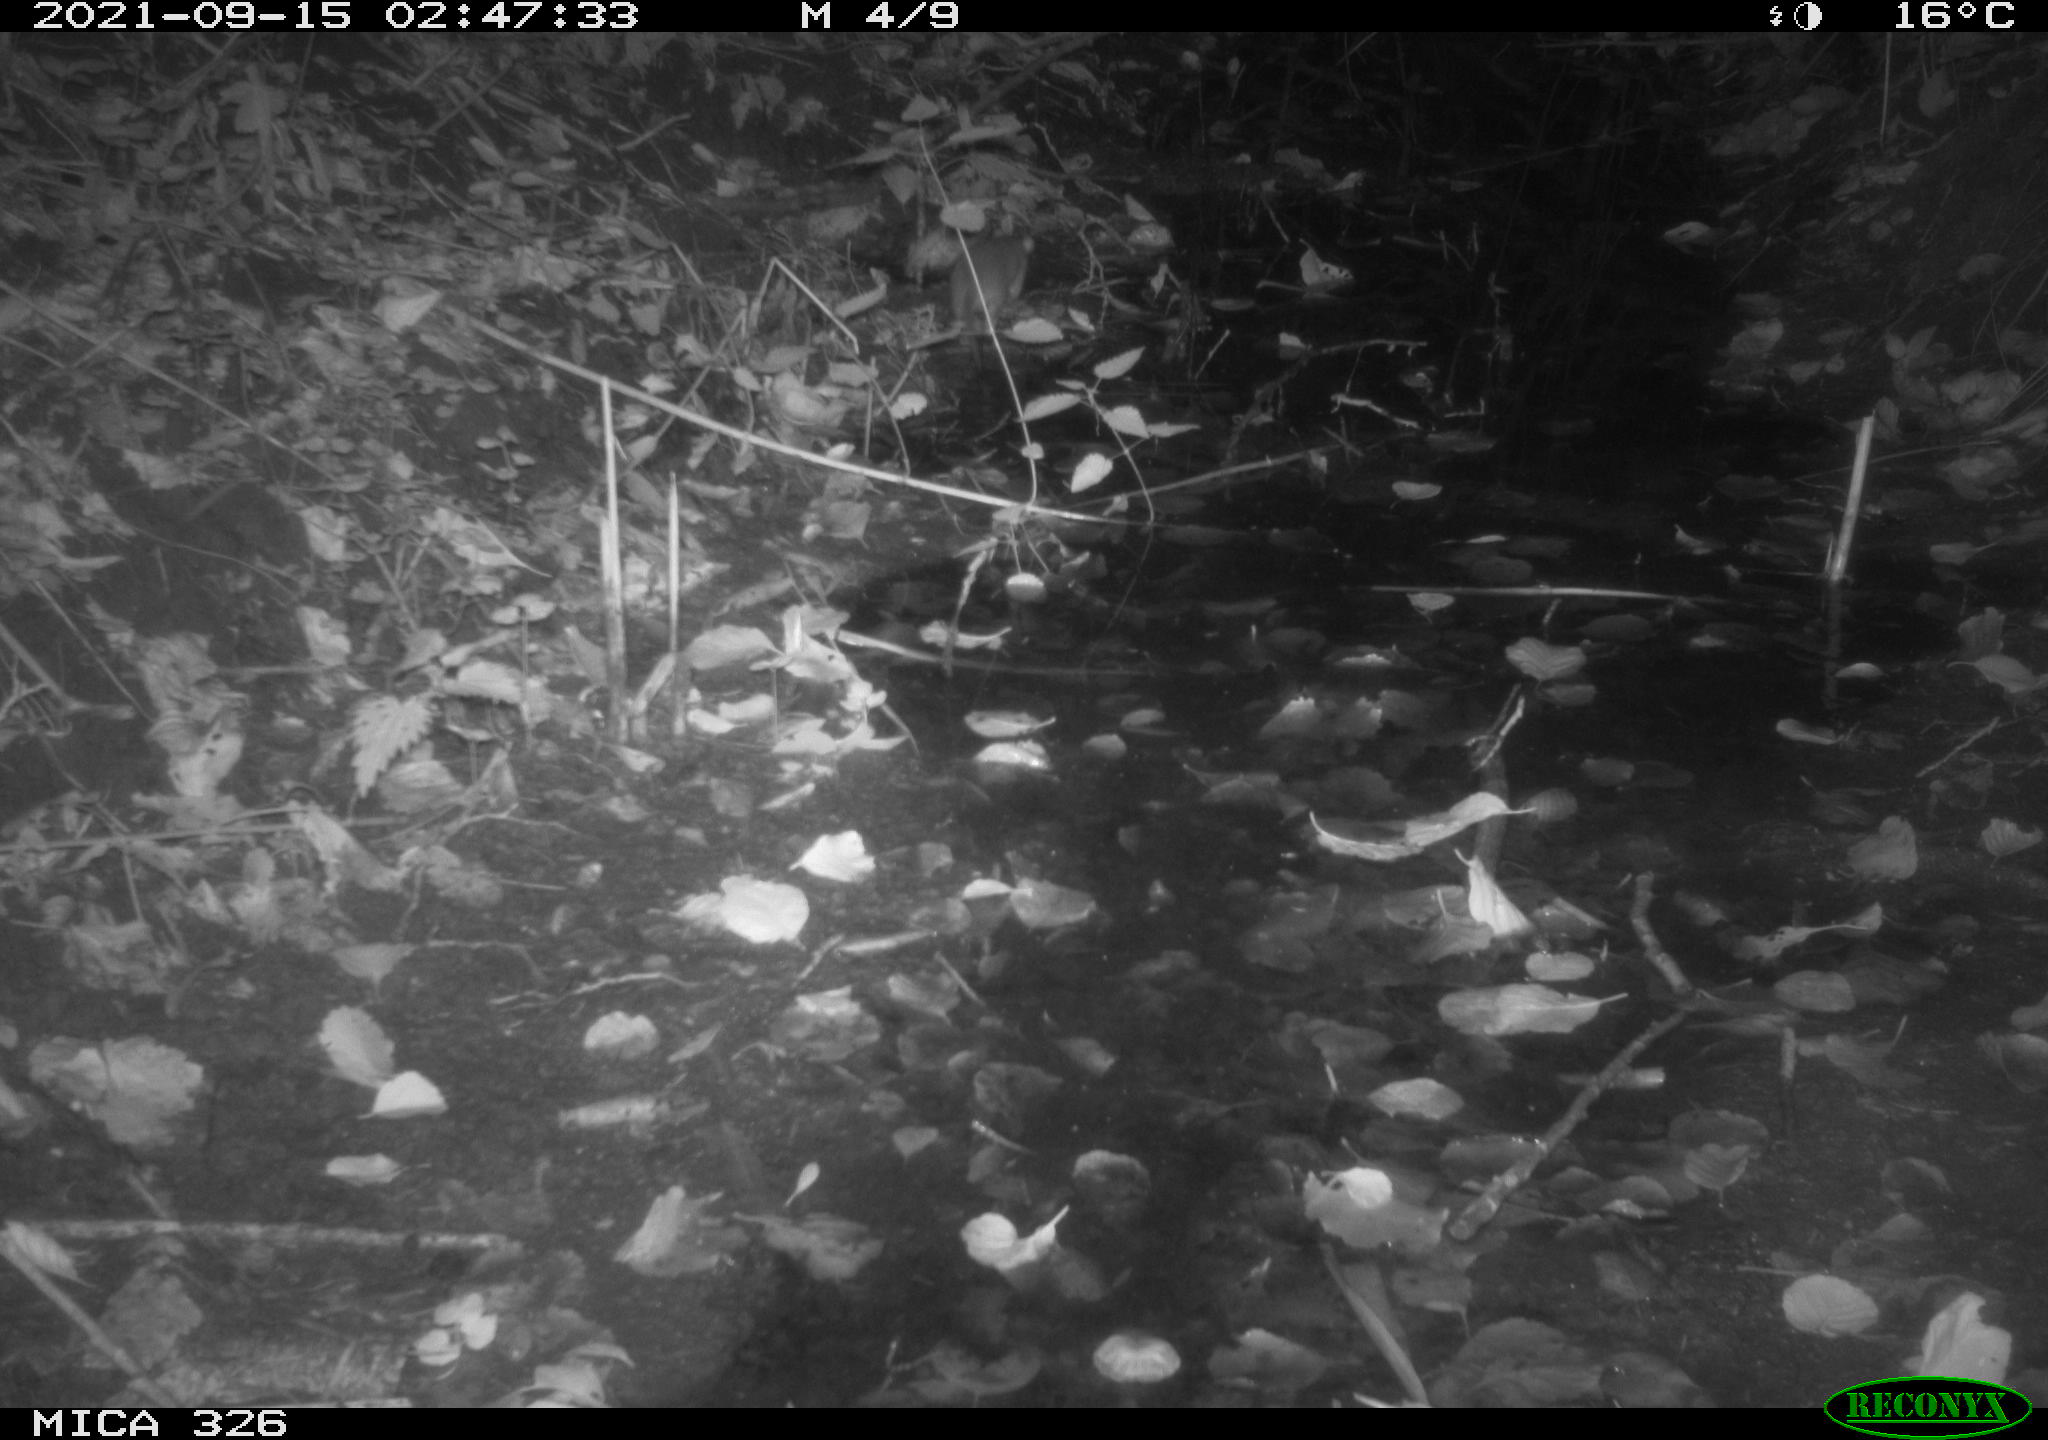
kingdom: Animalia
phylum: Chordata
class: Mammalia
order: Rodentia
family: Muridae
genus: Rattus
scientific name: Rattus norvegicus
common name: Brown rat
